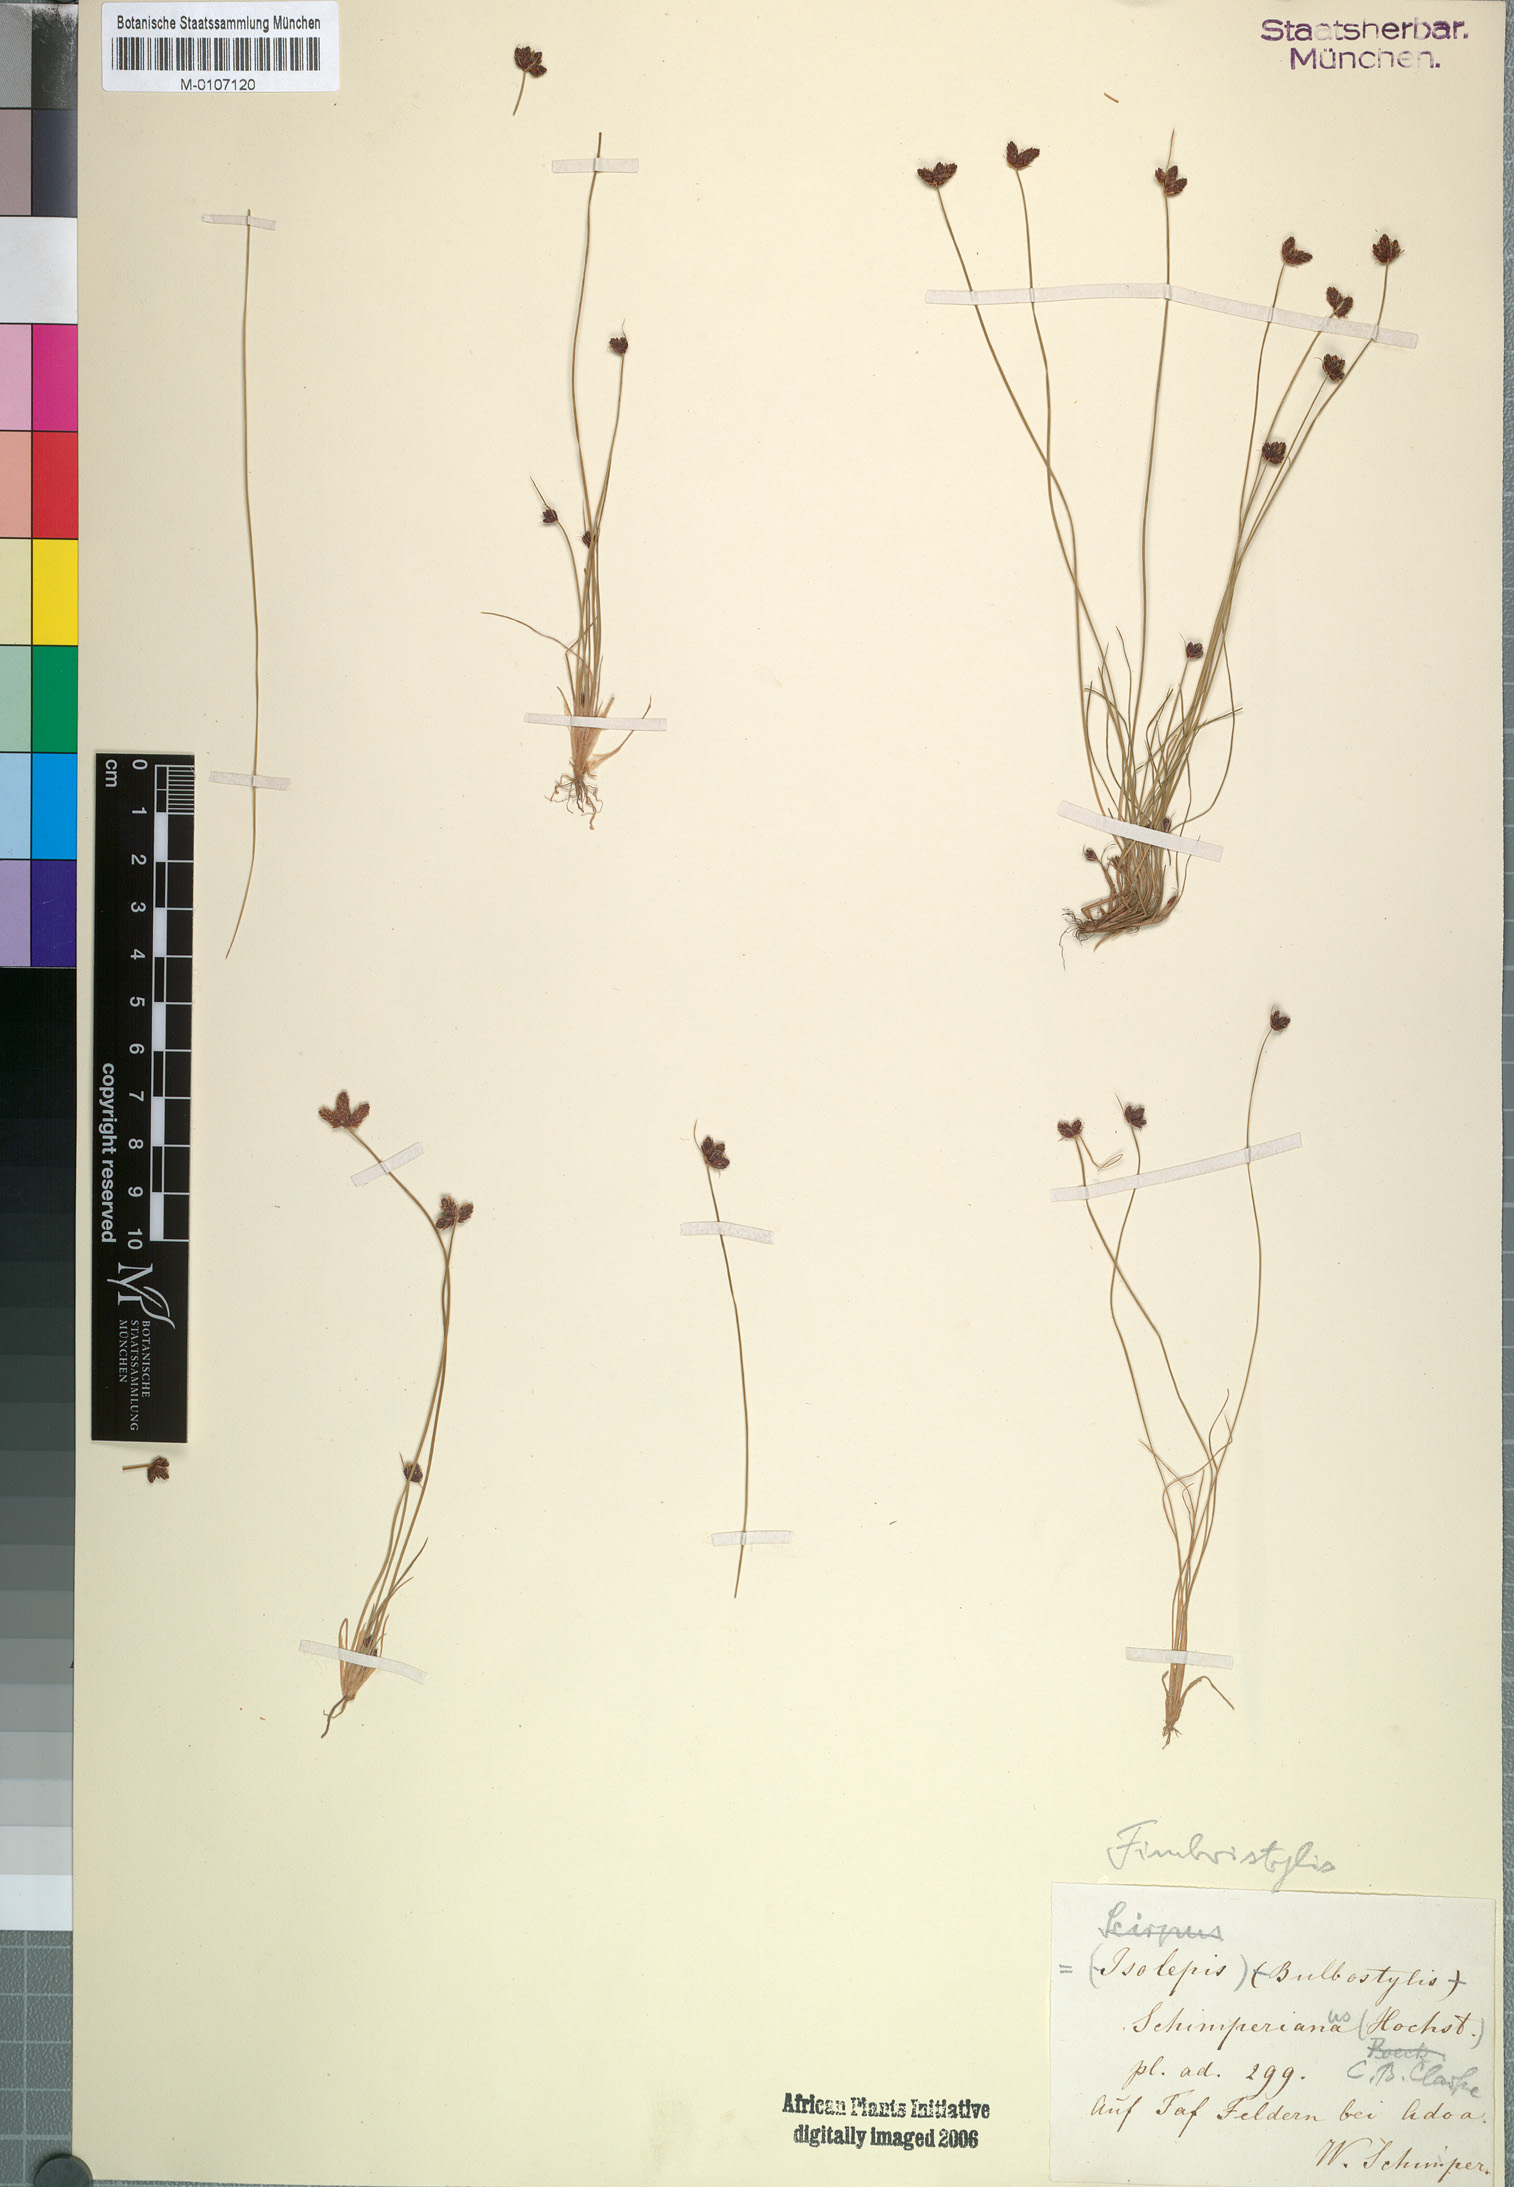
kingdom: Plantae
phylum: Tracheophyta
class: Liliopsida
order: Poales
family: Cyperaceae
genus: Bulbostylis
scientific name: Bulbostylis schimperiana
